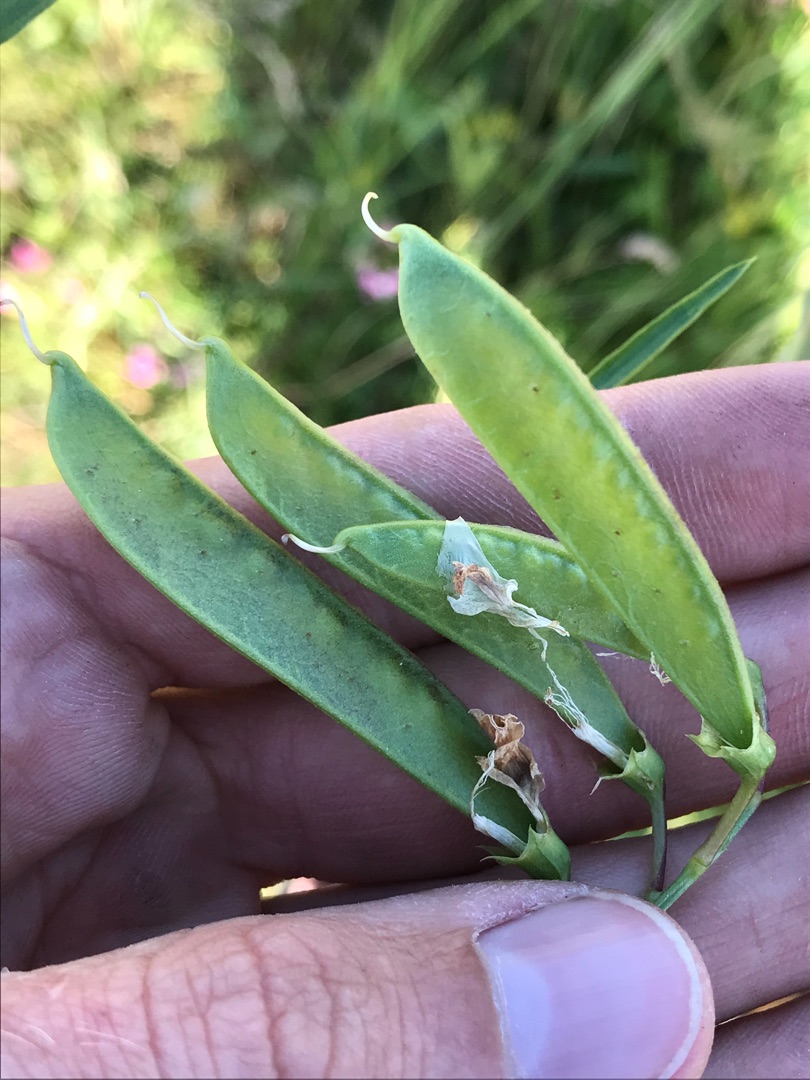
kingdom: Plantae
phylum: Tracheophyta
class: Magnoliopsida
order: Fabales
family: Fabaceae
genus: Lathyrus
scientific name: Lathyrus sylvestris
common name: Skov-fladbælg
